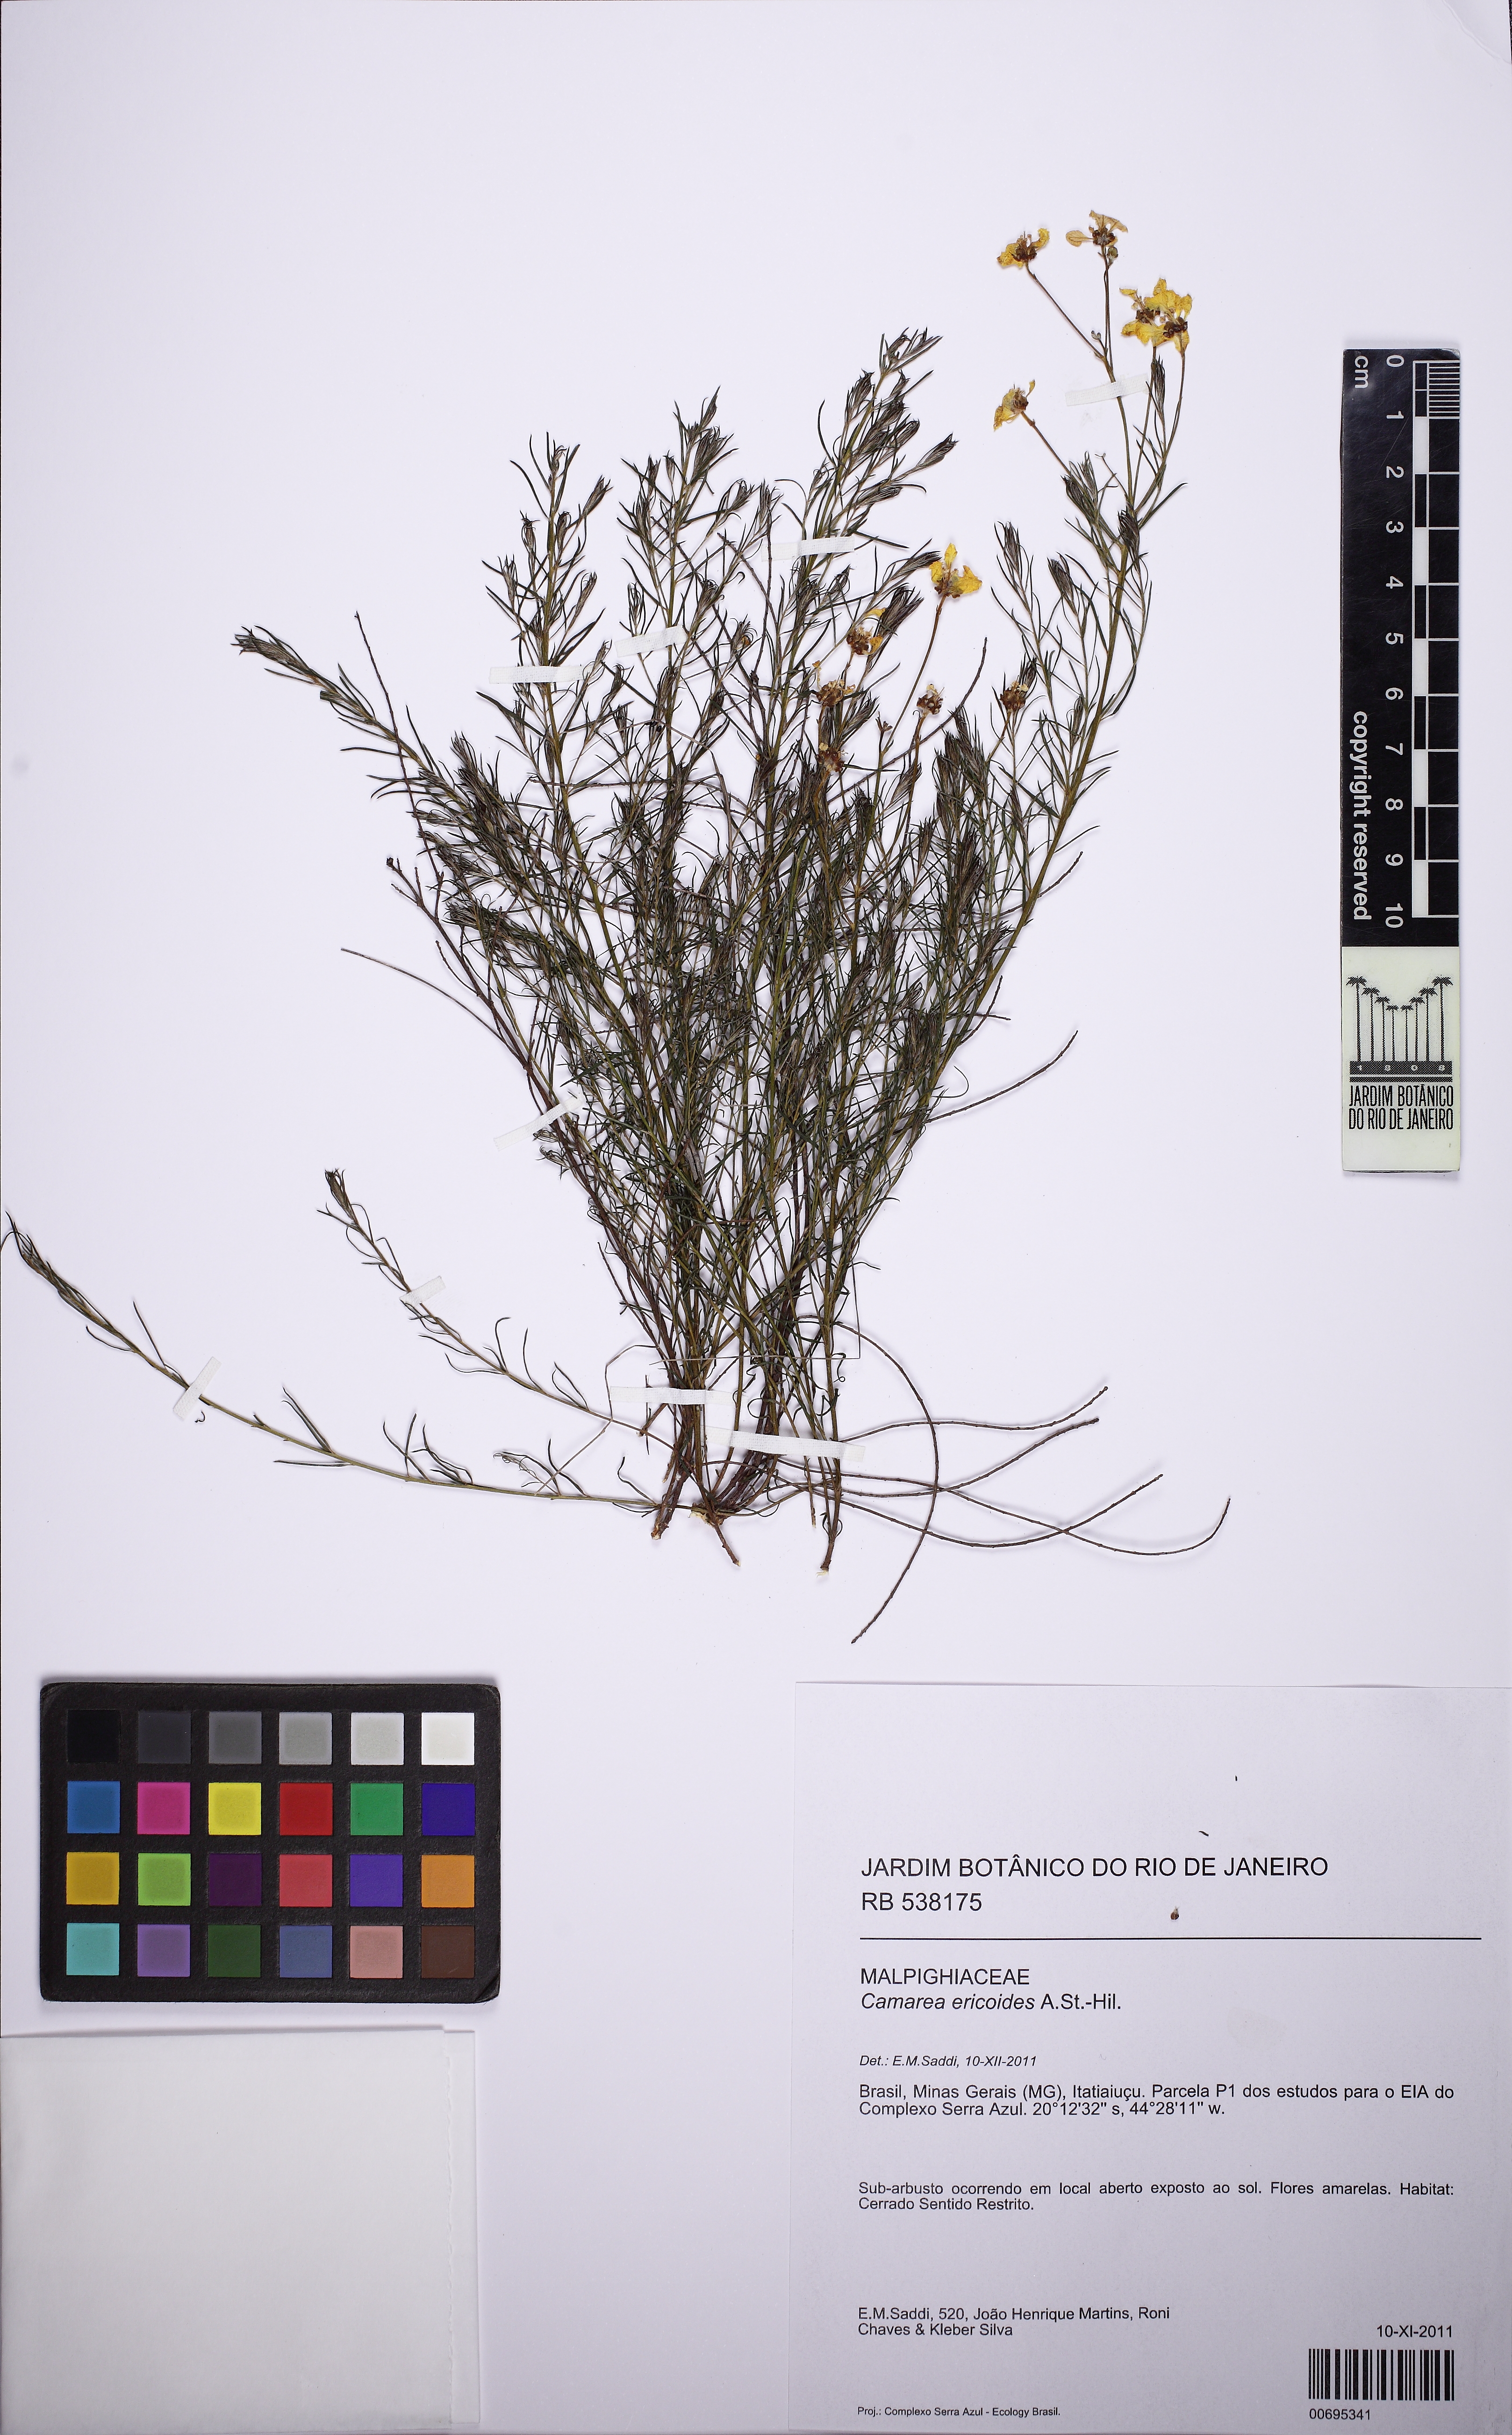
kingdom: Plantae
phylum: Tracheophyta
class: Magnoliopsida
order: Malpighiales
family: Malpighiaceae
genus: Camarea
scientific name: Camarea ericoides
